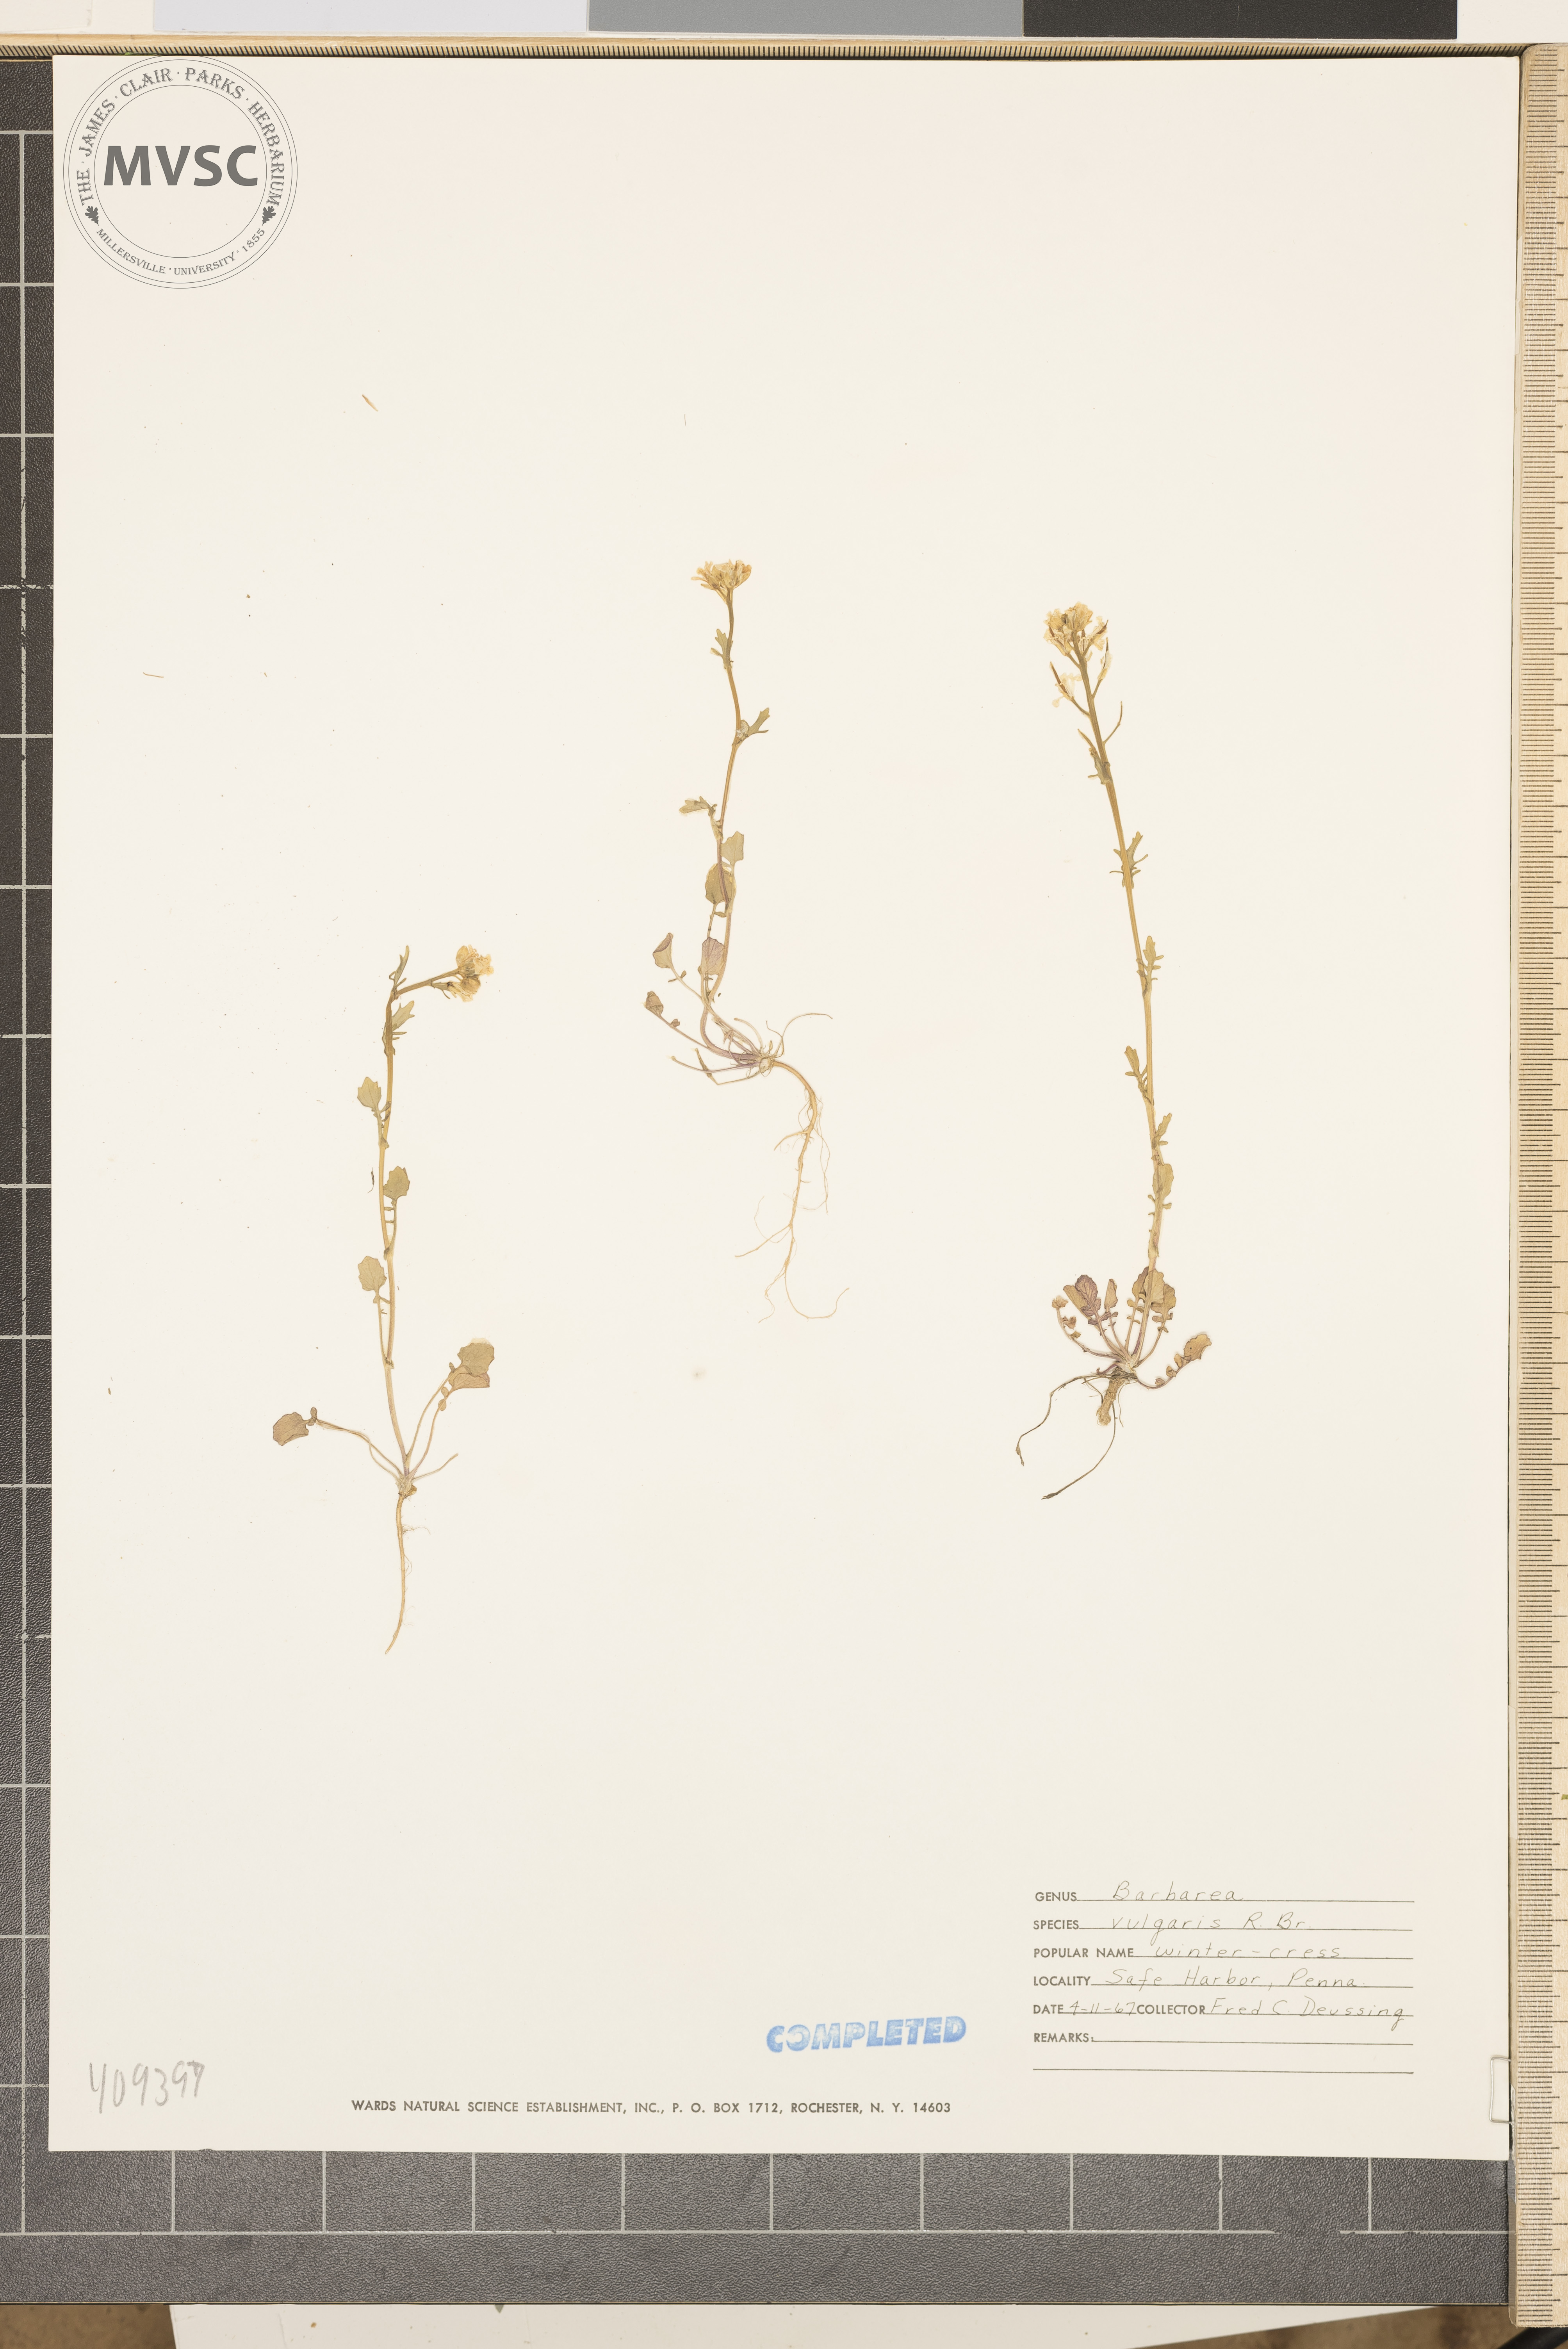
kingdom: Plantae
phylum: Tracheophyta
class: Magnoliopsida
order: Brassicales
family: Brassicaceae
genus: Barbarea
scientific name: Barbarea vulgaris
